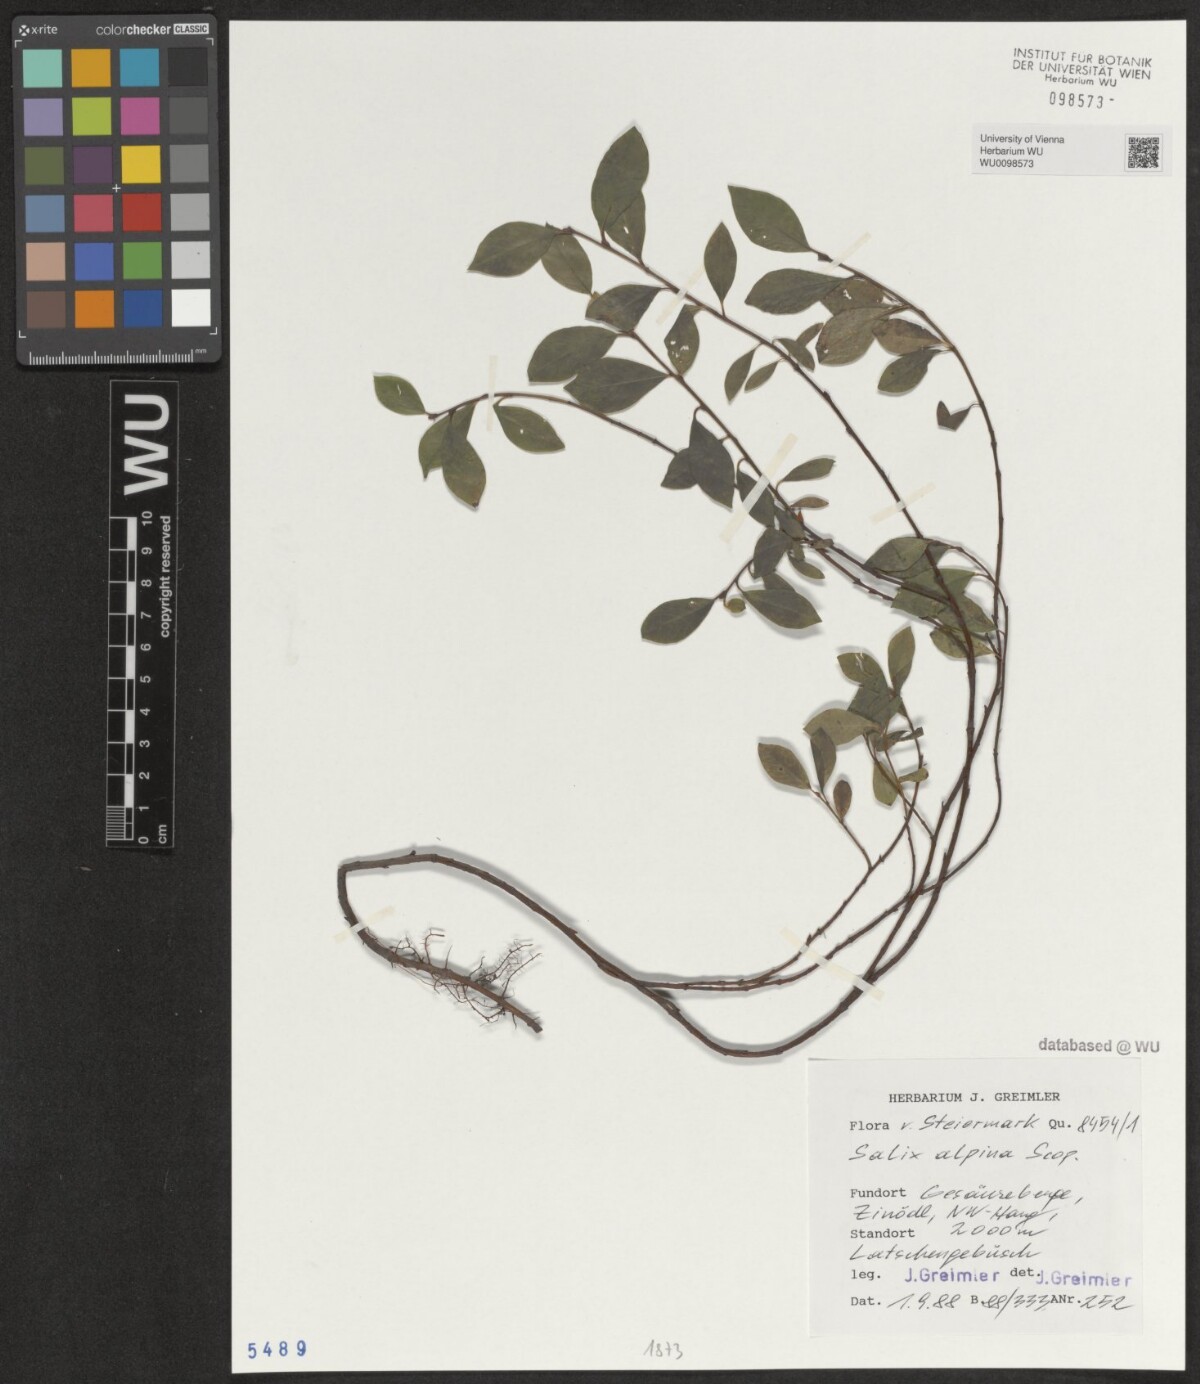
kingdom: Plantae
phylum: Tracheophyta
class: Magnoliopsida
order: Malpighiales
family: Salicaceae
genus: Salix
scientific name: Salix alpina
